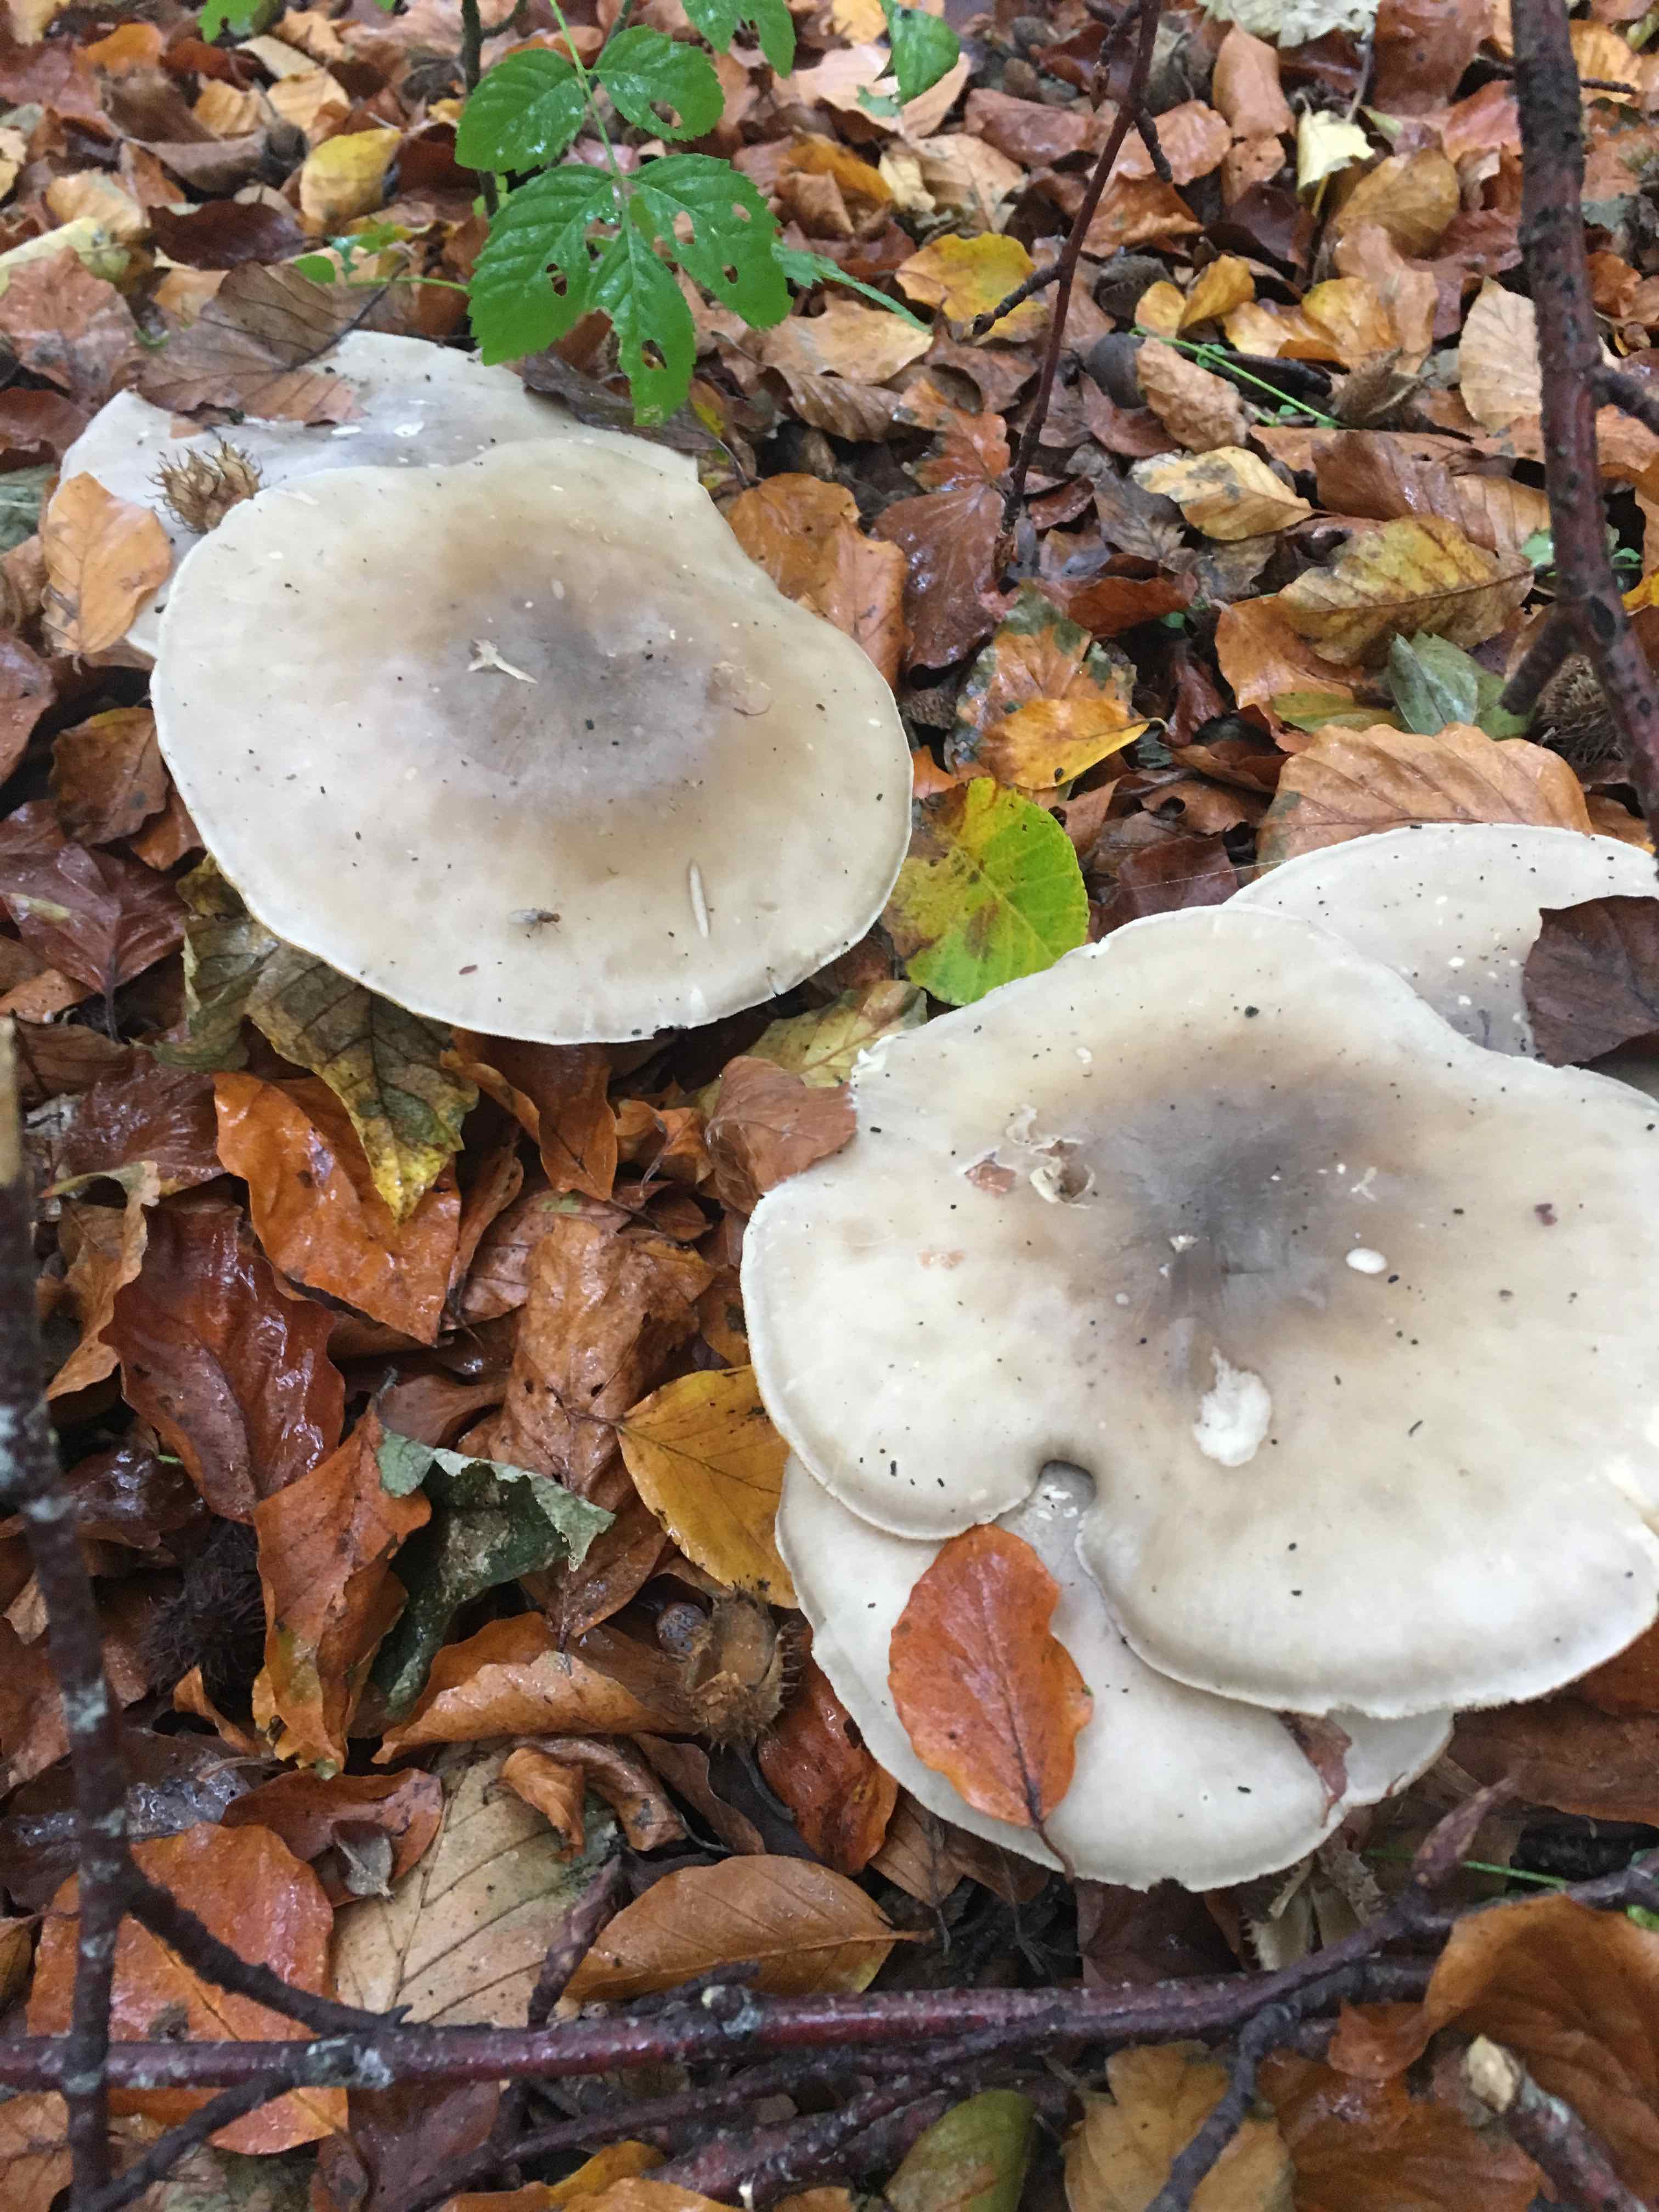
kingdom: Fungi
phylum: Basidiomycota
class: Agaricomycetes
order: Agaricales
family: Tricholomataceae
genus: Clitocybe
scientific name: Clitocybe nebularis
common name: tåge-tragthat
